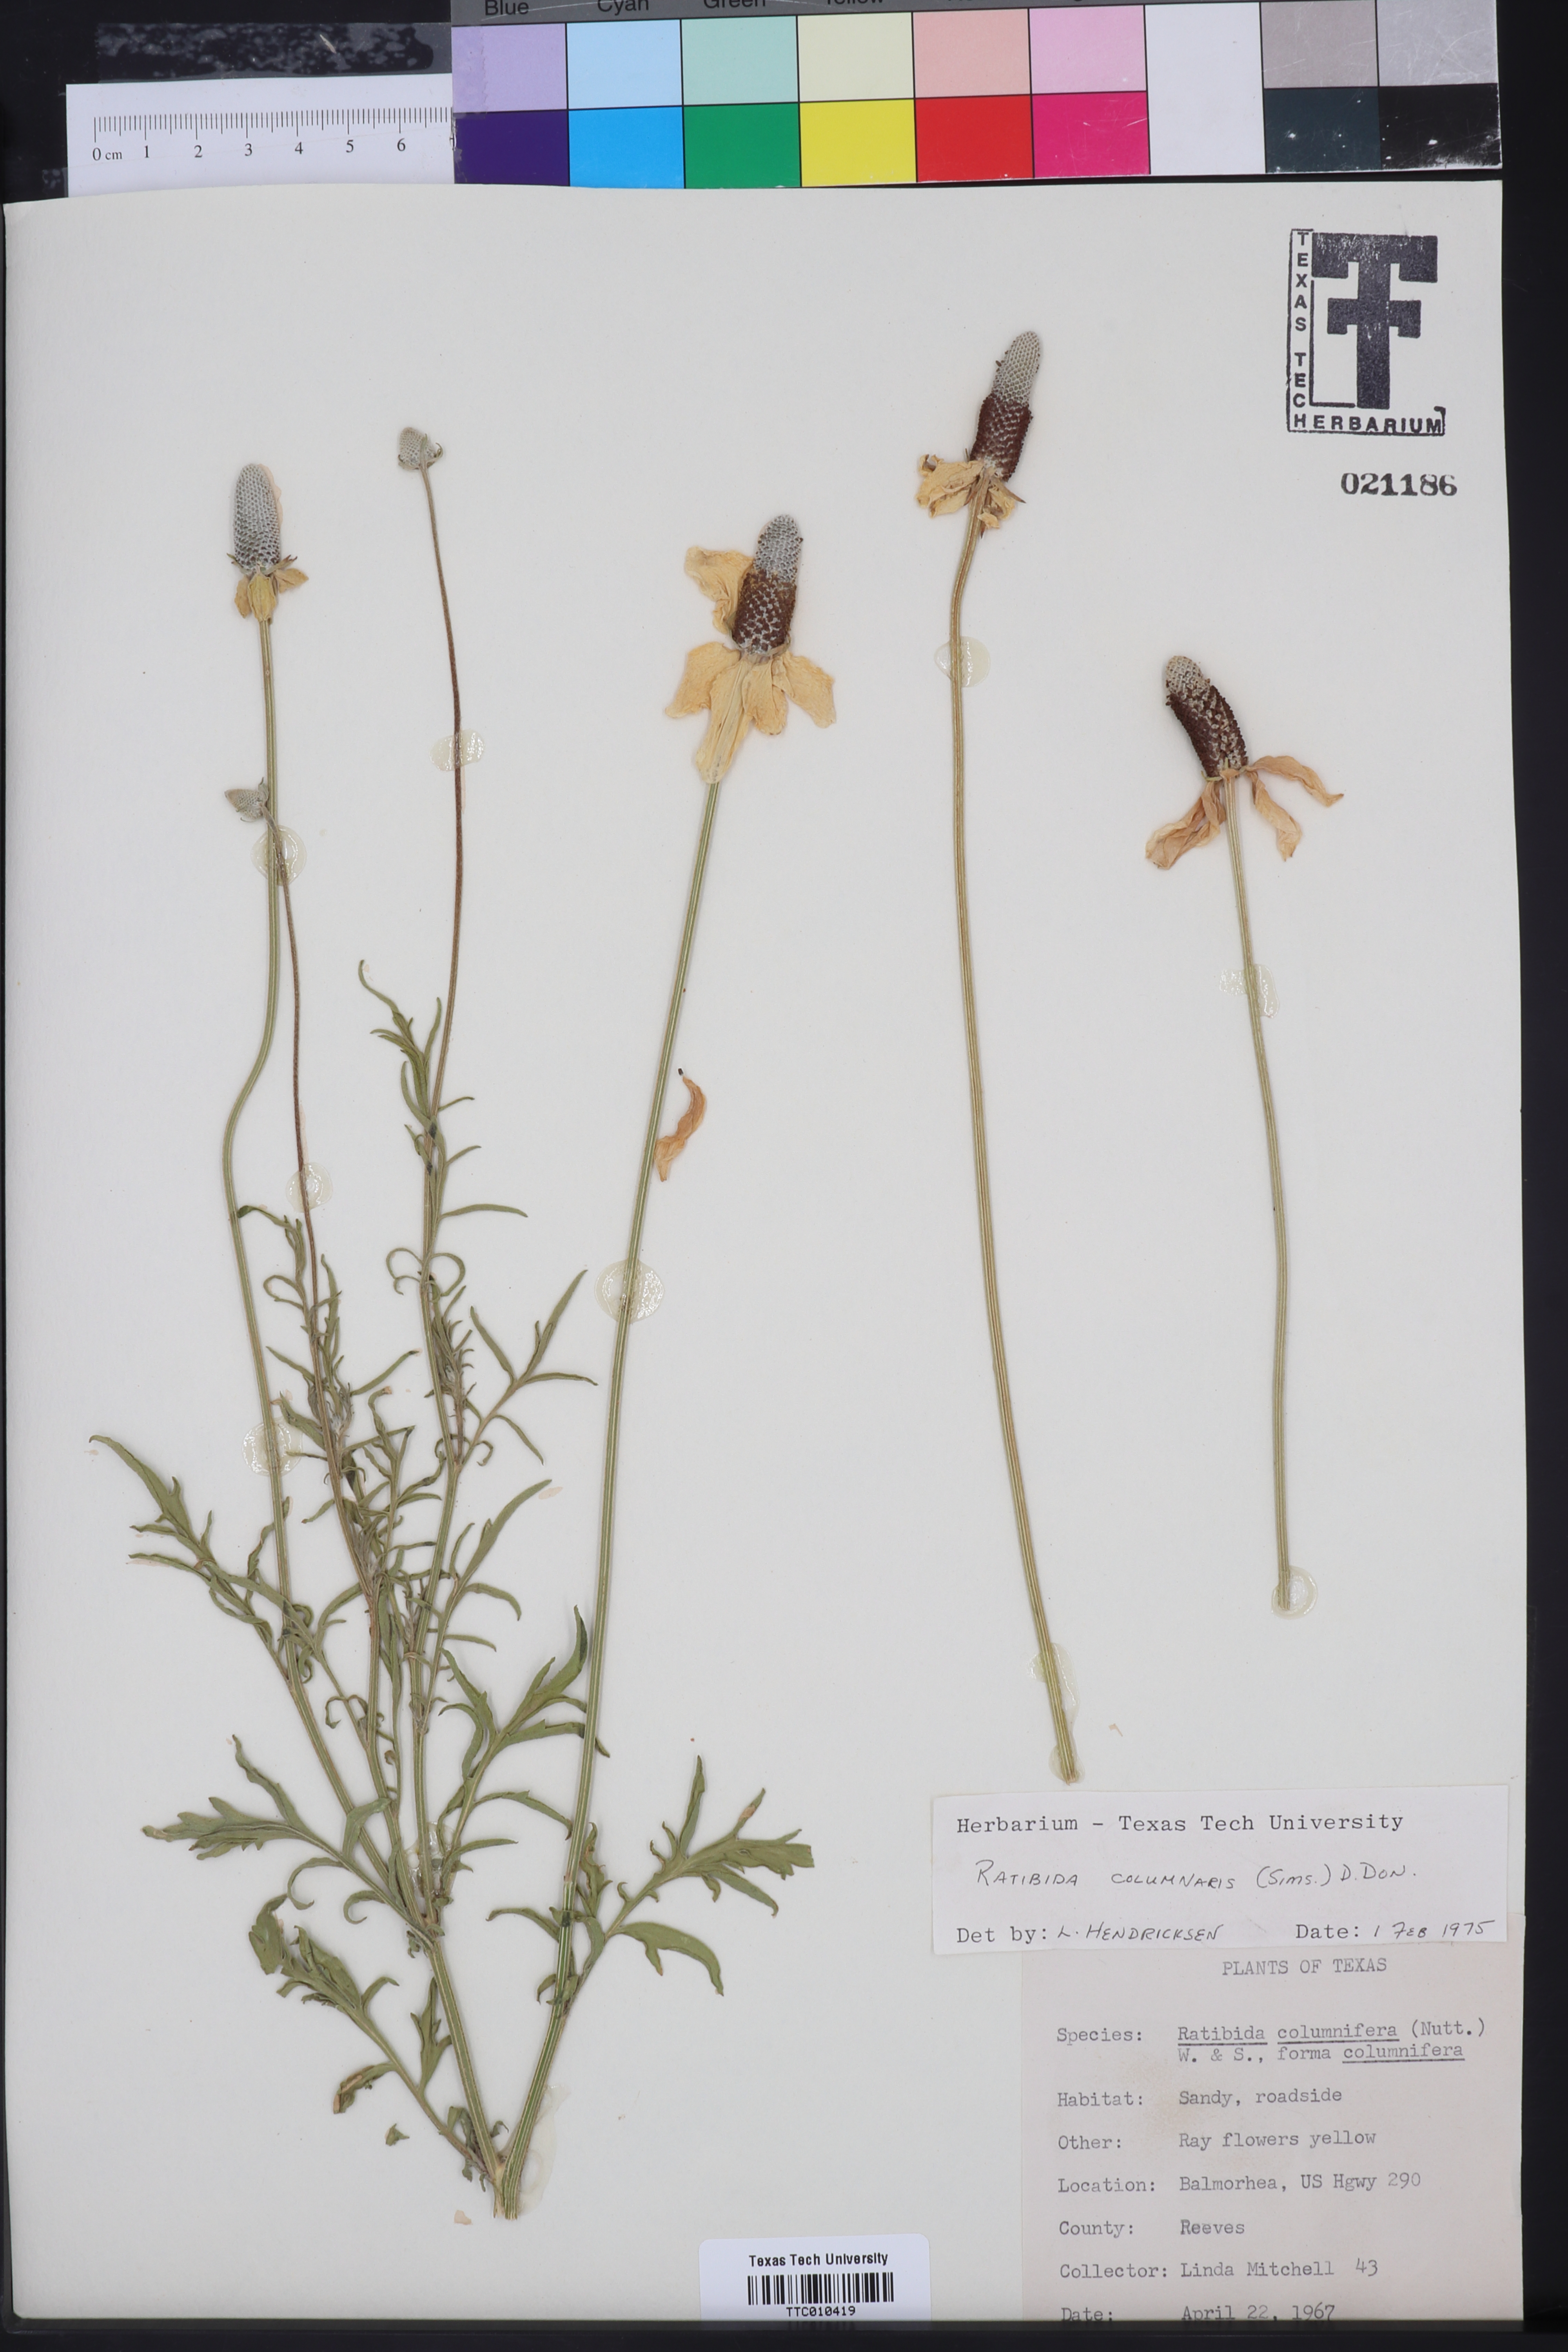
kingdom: Plantae
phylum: Tracheophyta
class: Magnoliopsida
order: Asterales
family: Asteraceae
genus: Ratibida
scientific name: Ratibida columnifera
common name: Prairie coneflower
